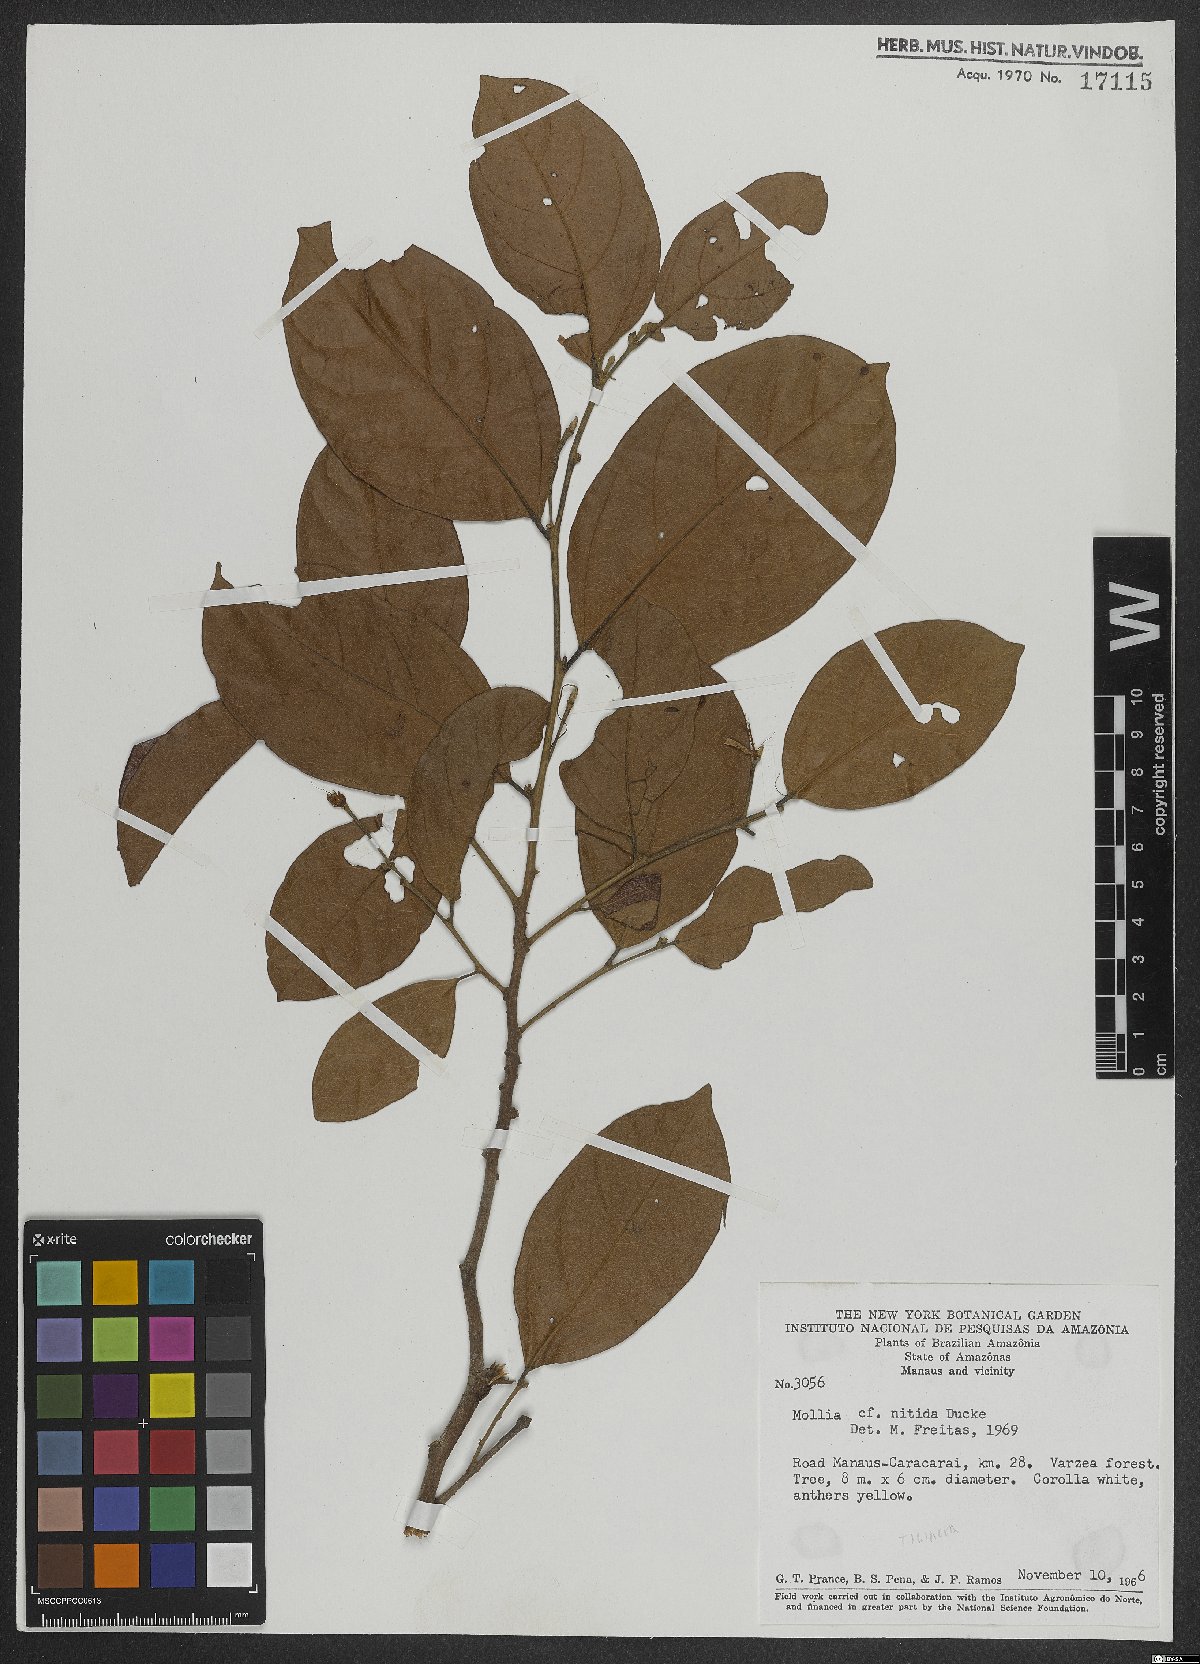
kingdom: Plantae
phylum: Tracheophyta
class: Magnoliopsida
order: Malvales
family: Malvaceae
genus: Mollia
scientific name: Mollia nitida
